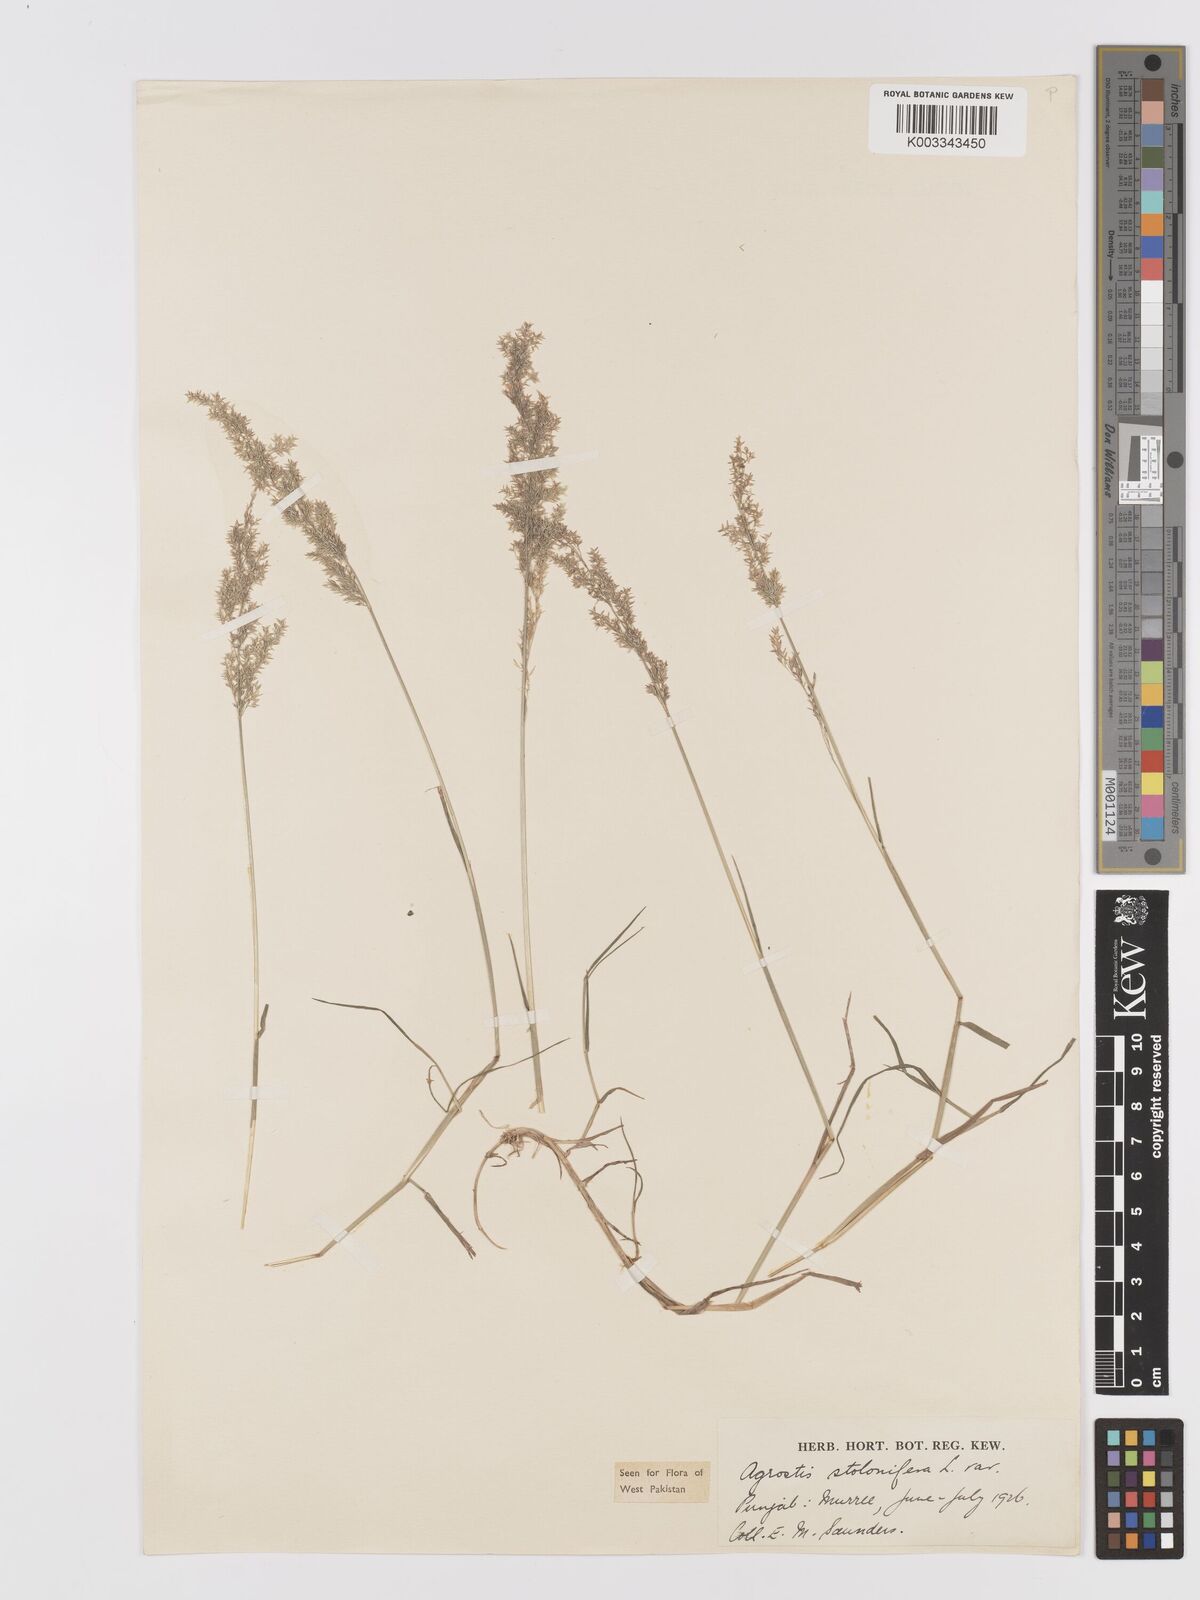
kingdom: Plantae
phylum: Tracheophyta
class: Liliopsida
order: Poales
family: Poaceae
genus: Agrostis
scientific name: Agrostis stolonifera
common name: Creeping bentgrass
